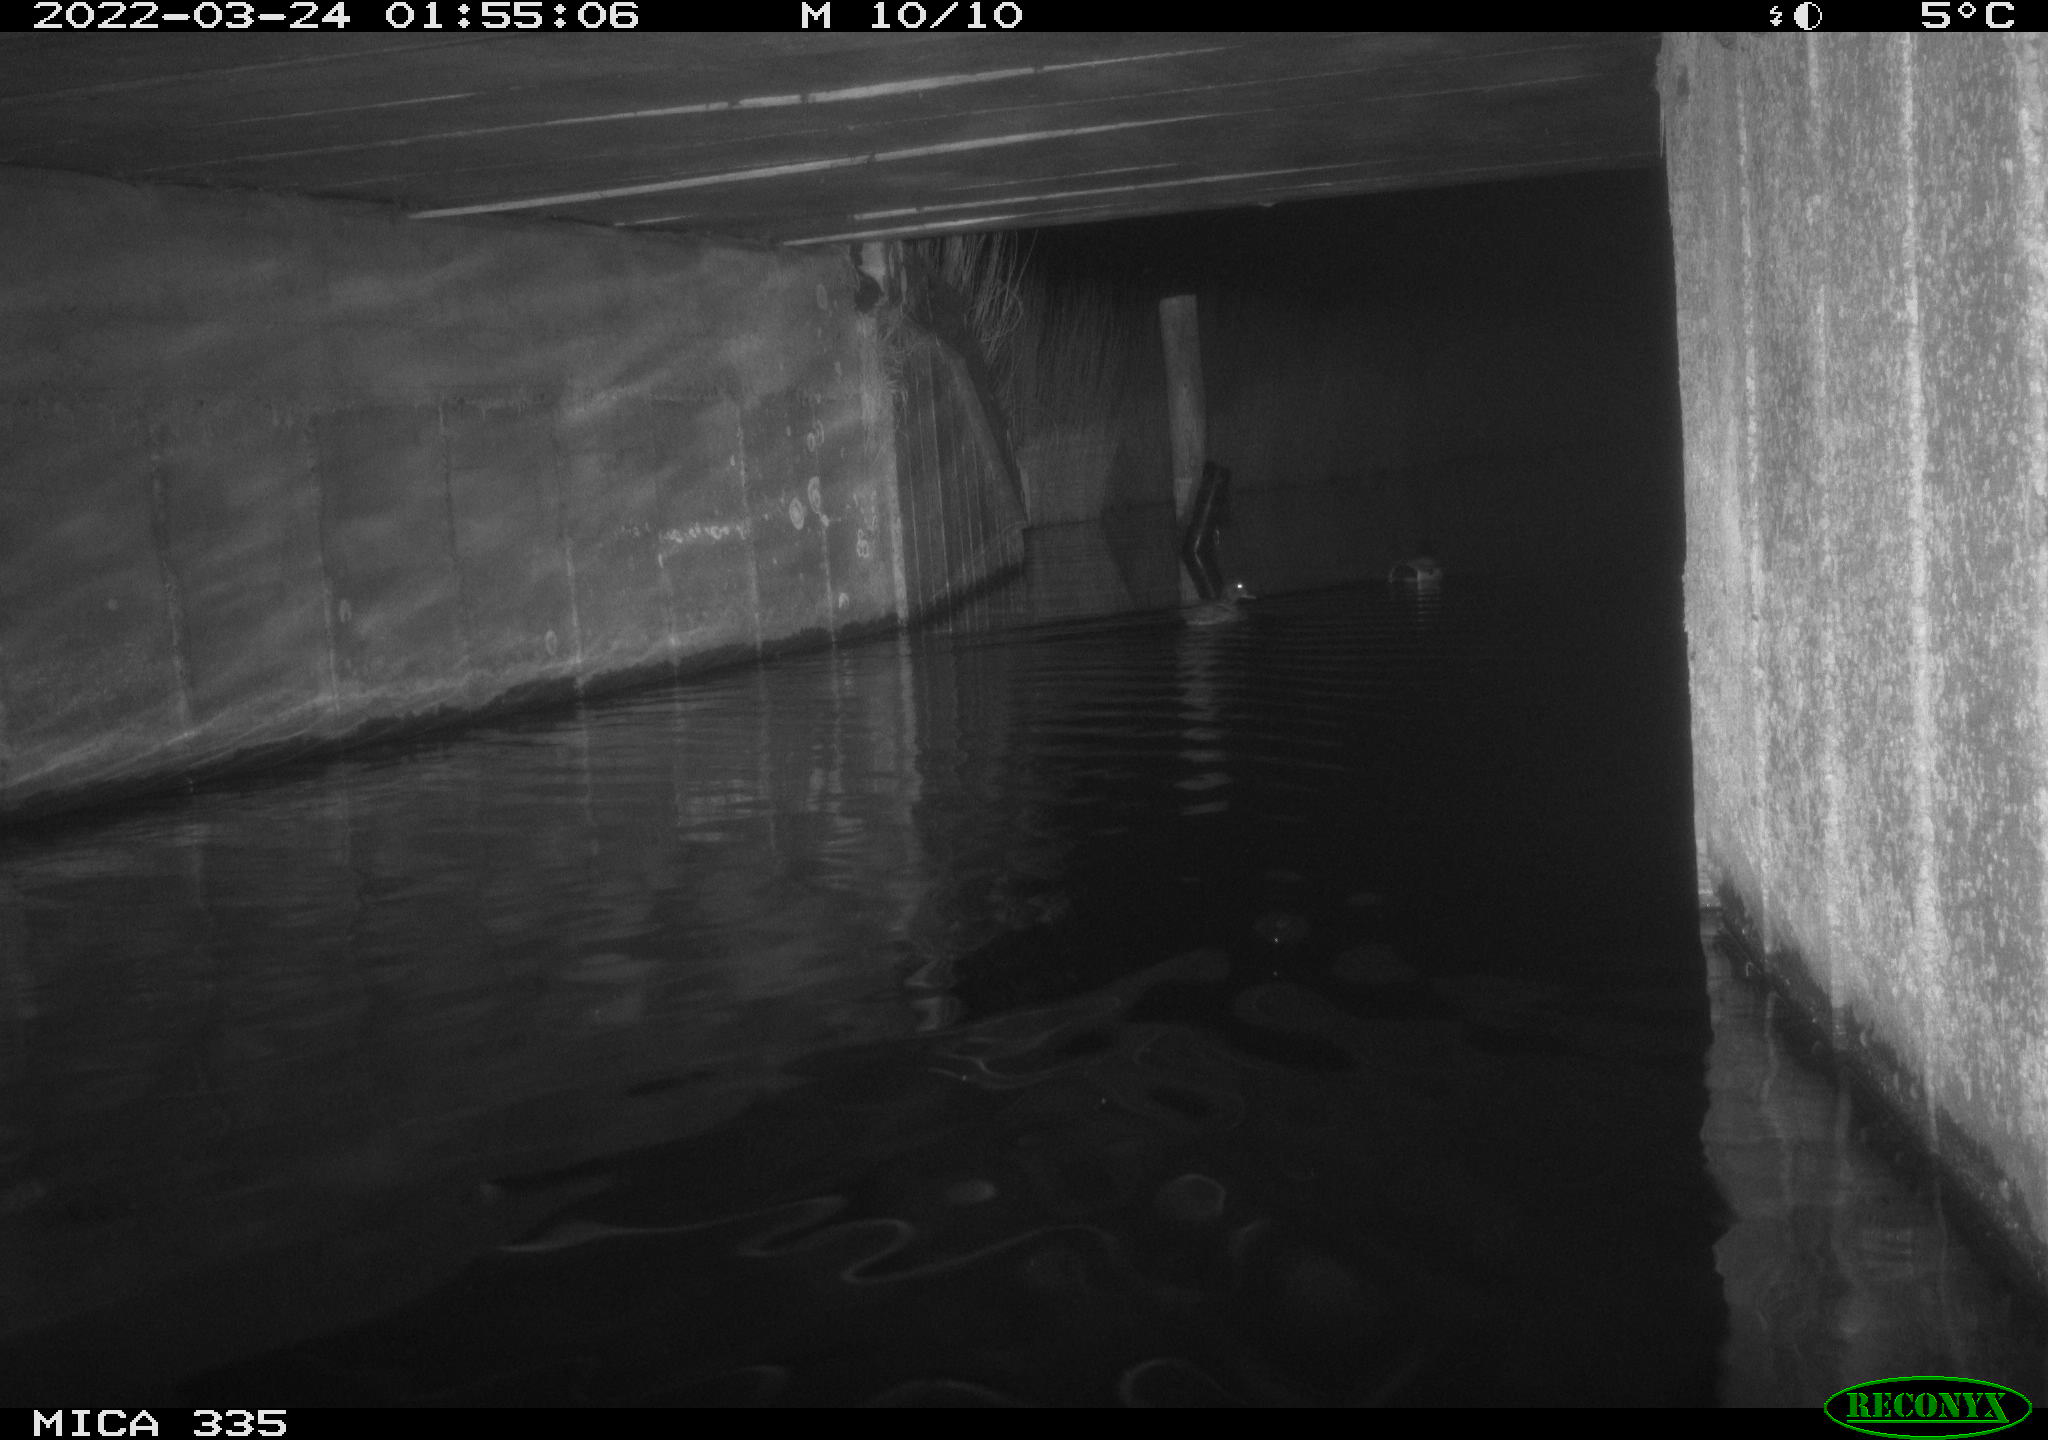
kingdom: Animalia
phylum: Chordata
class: Aves
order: Anseriformes
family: Anatidae
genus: Anas
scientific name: Anas platyrhynchos
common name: Mallard
